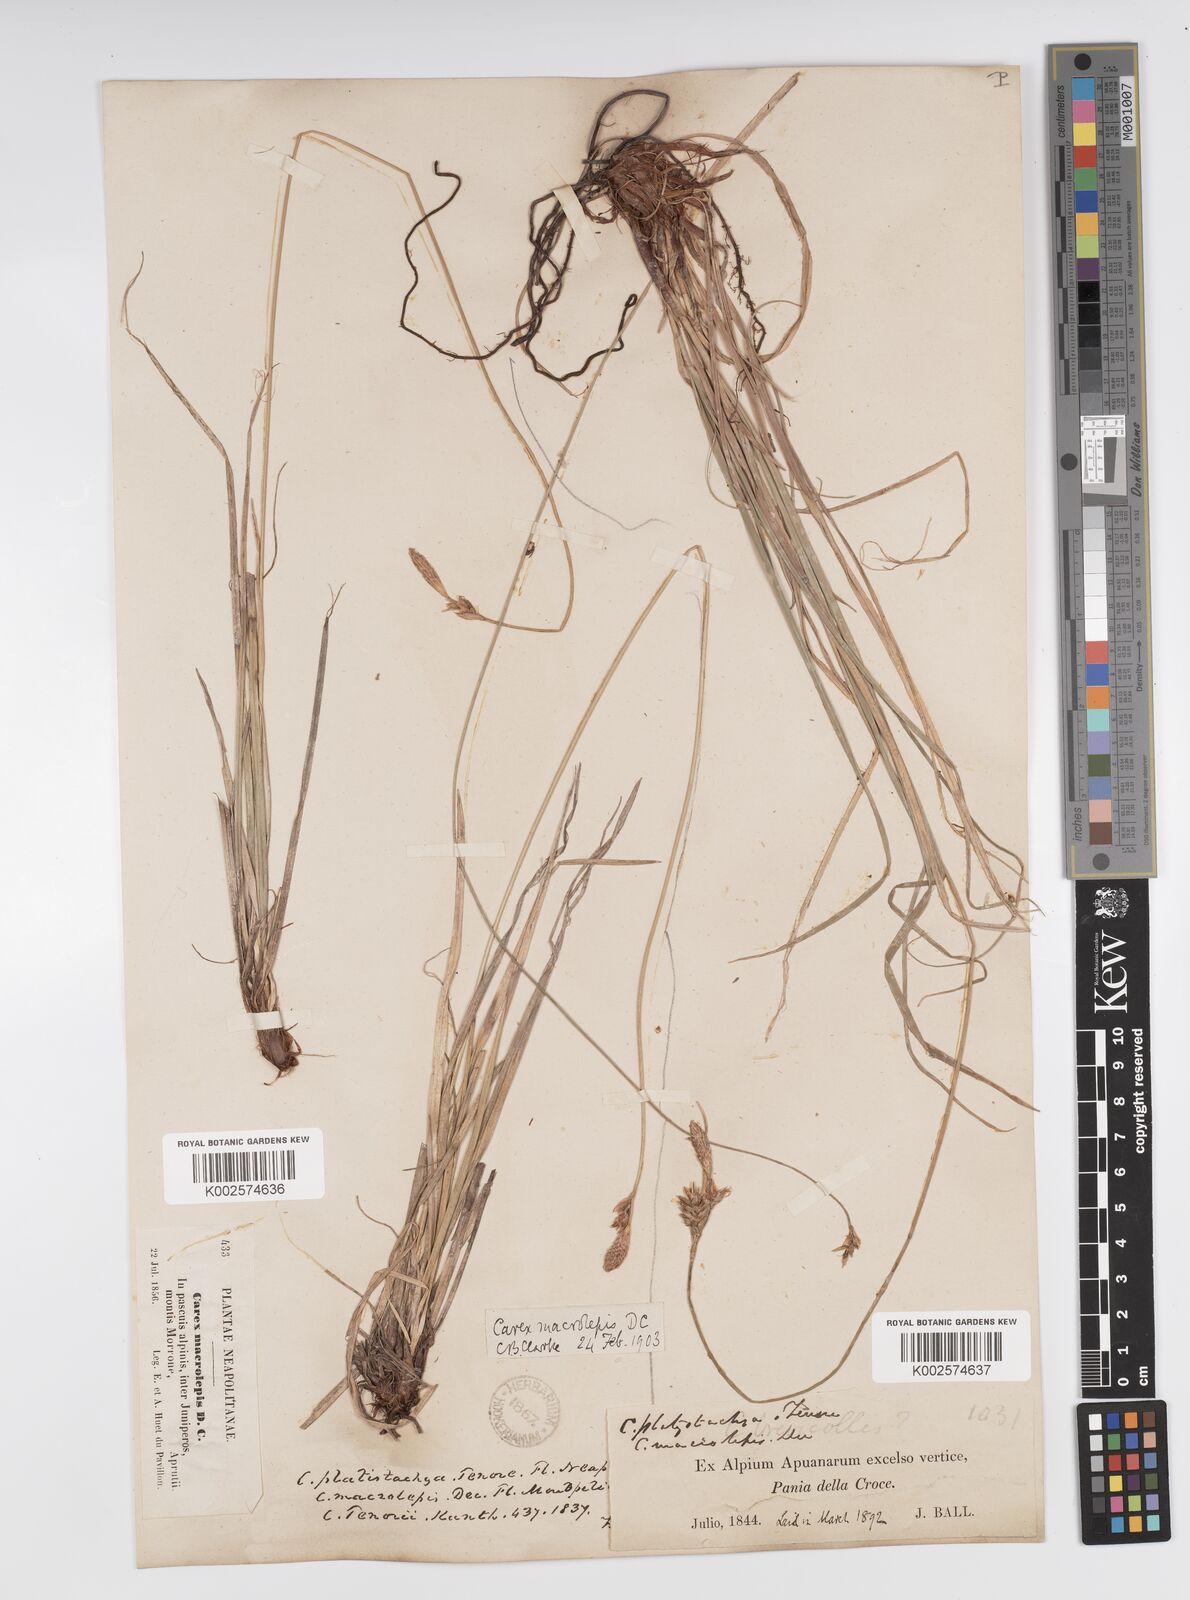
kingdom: Plantae
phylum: Tracheophyta
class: Liliopsida
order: Poales
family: Cyperaceae
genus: Carex
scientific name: Carex macrolepis
